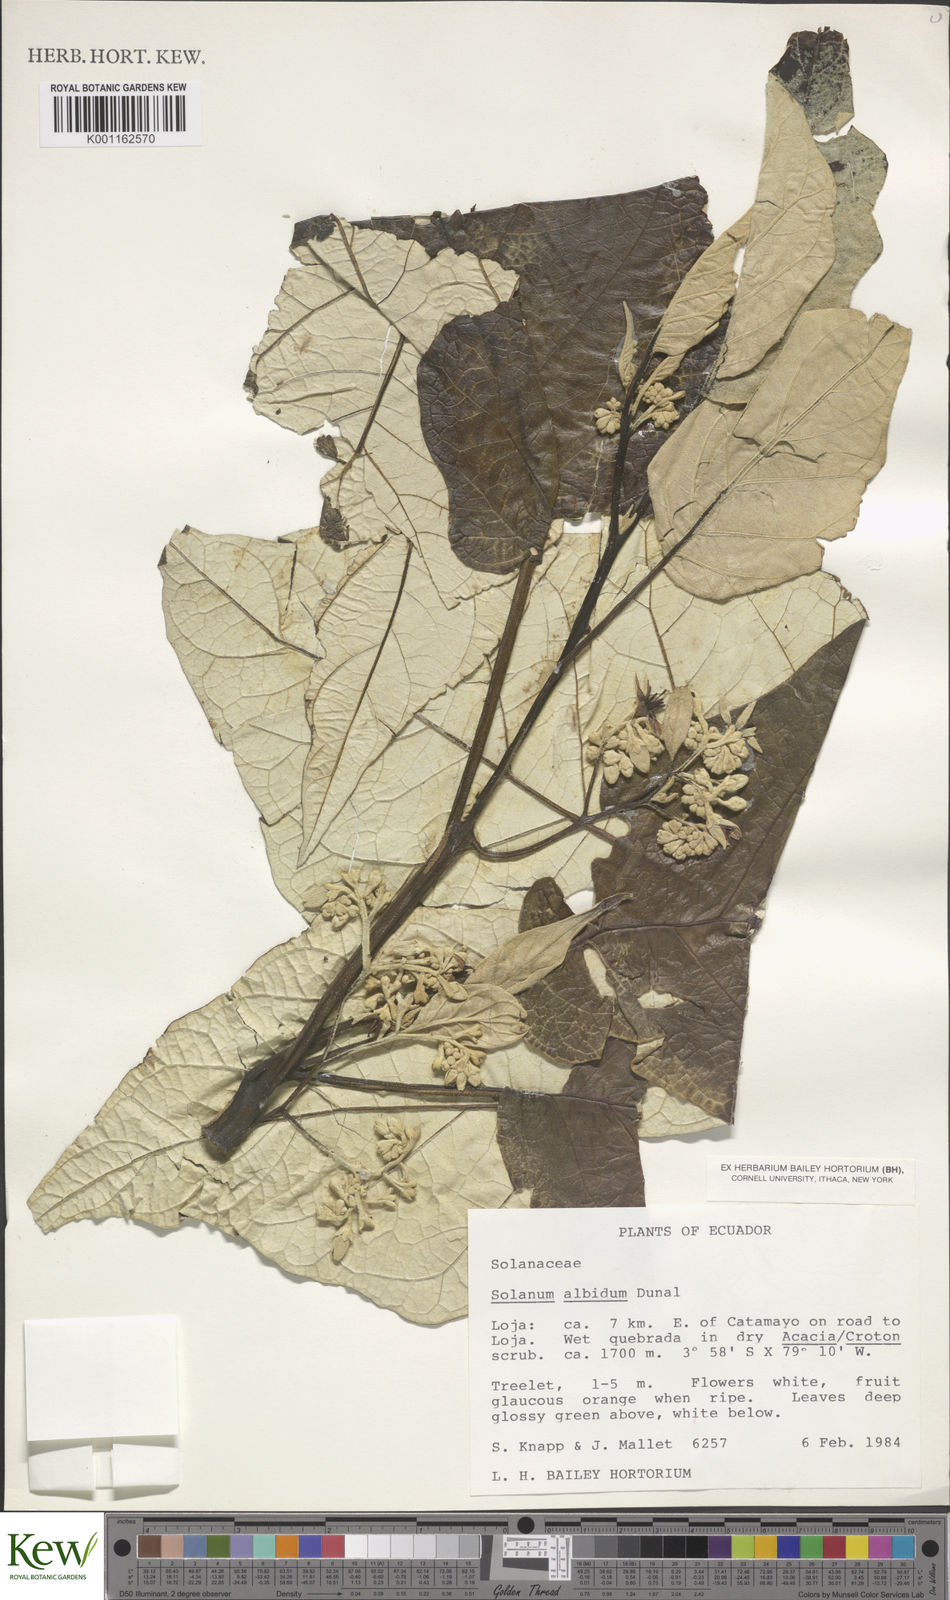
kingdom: Plantae
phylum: Tracheophyta
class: Magnoliopsida
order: Solanales
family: Solanaceae
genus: Solanum
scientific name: Solanum albidum
